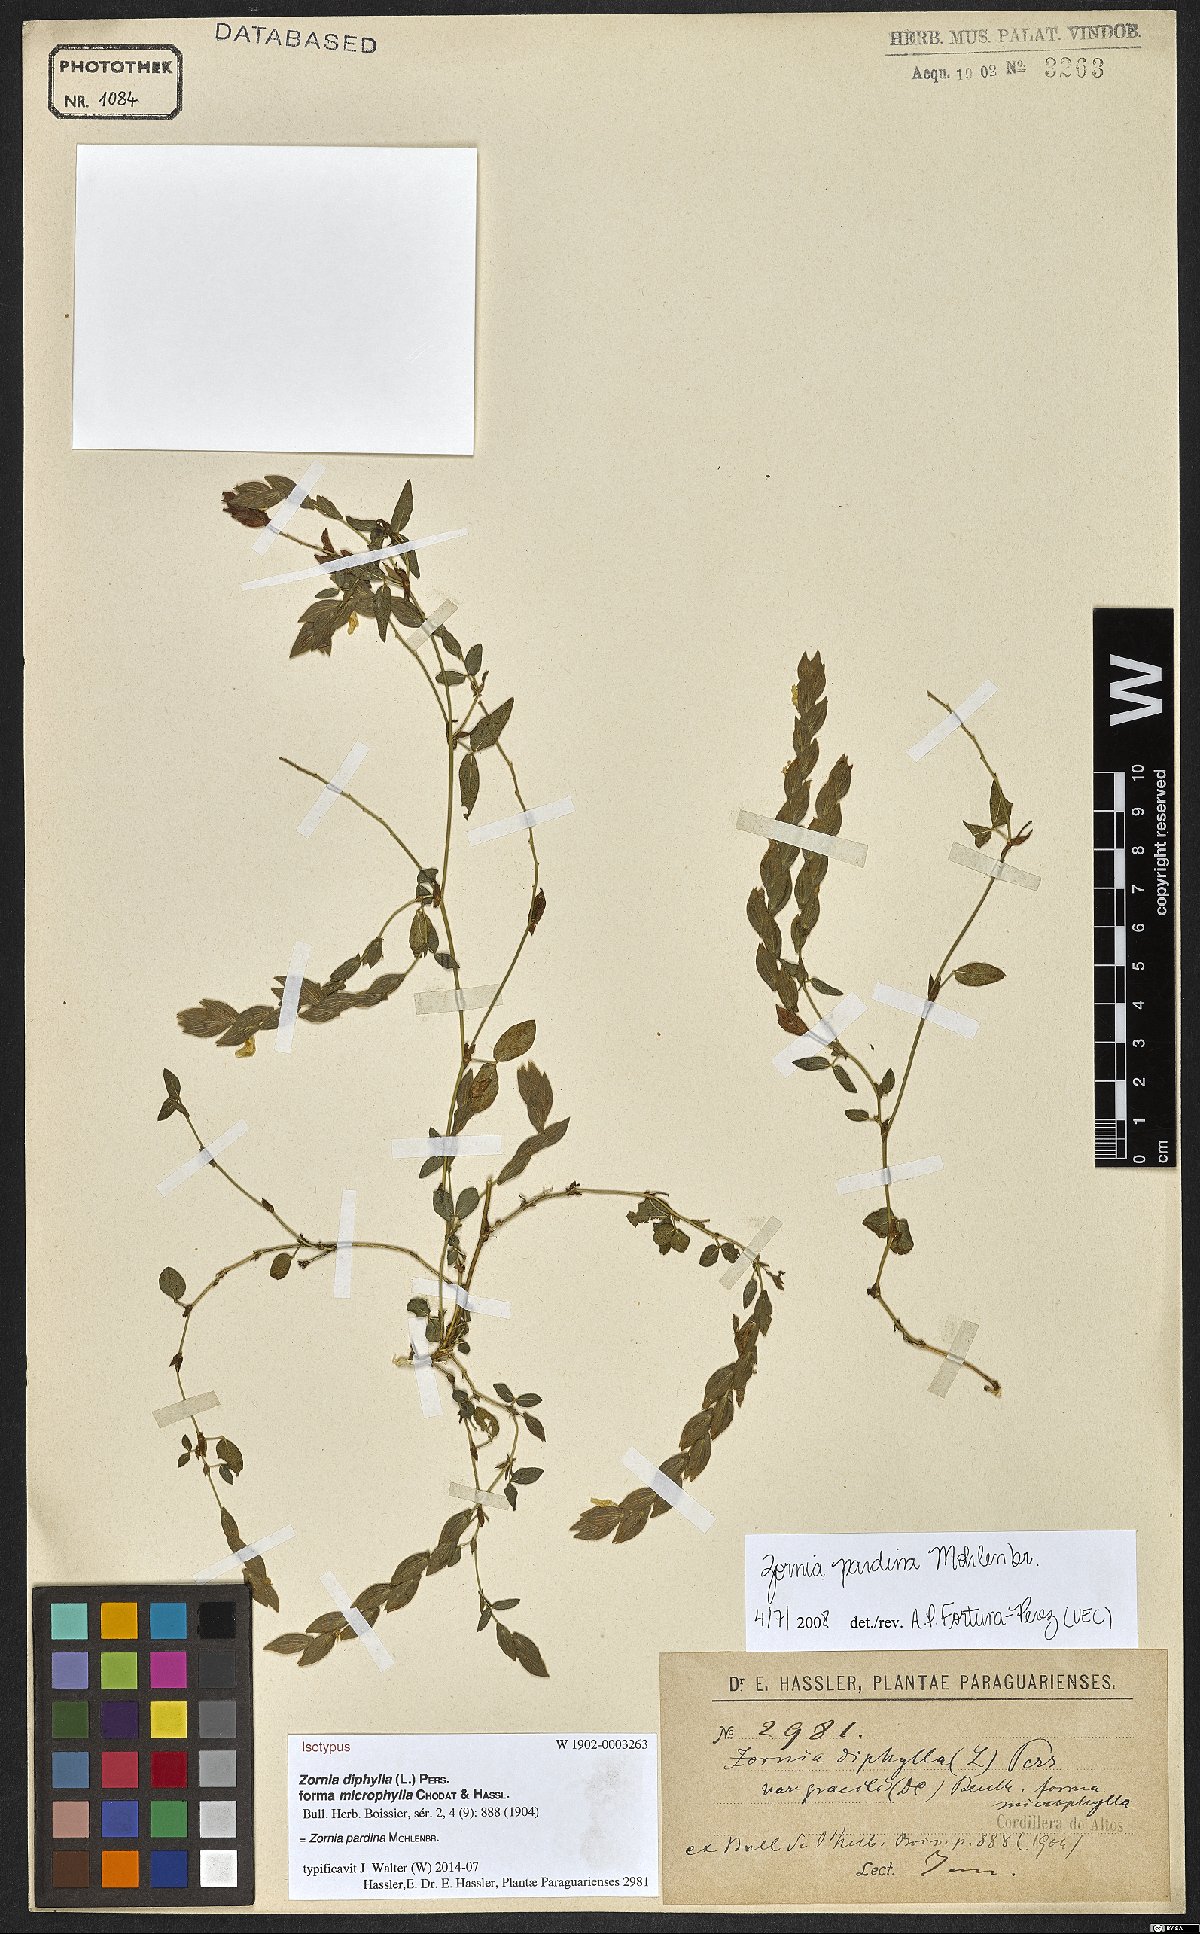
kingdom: Plantae
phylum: Tracheophyta
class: Magnoliopsida
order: Fabales
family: Fabaceae
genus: Zornia
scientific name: Zornia pardina
